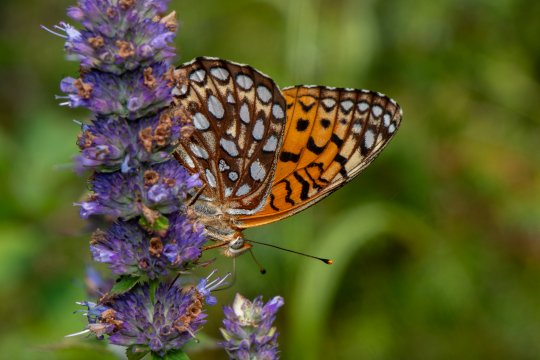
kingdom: Animalia
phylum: Arthropoda
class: Insecta
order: Lepidoptera
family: Nymphalidae
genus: Speyeria
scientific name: Speyeria atlantis
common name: Atlantis Fritillary
